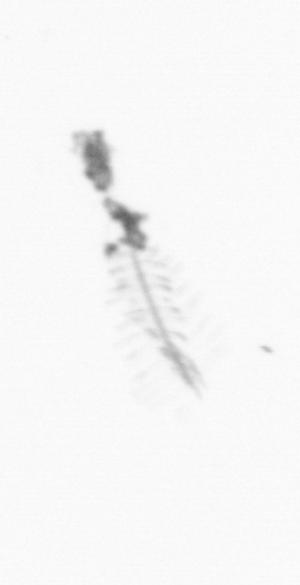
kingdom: Chromista
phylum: Ochrophyta
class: Bacillariophyceae
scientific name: Bacillariophyceae
